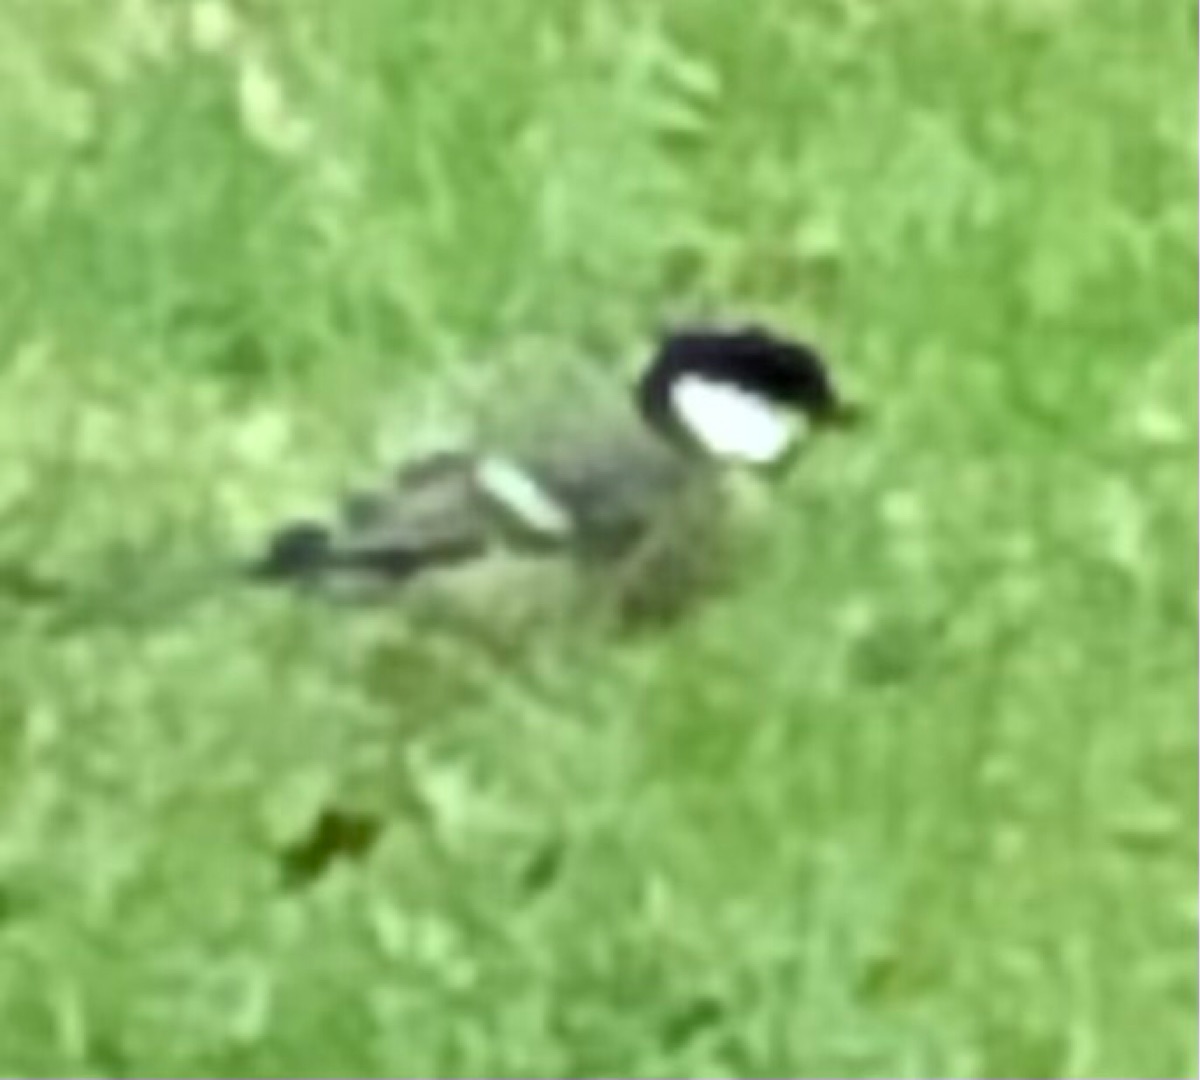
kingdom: Animalia
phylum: Chordata
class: Aves
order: Passeriformes
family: Paridae
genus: Parus
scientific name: Parus major
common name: Musvit
